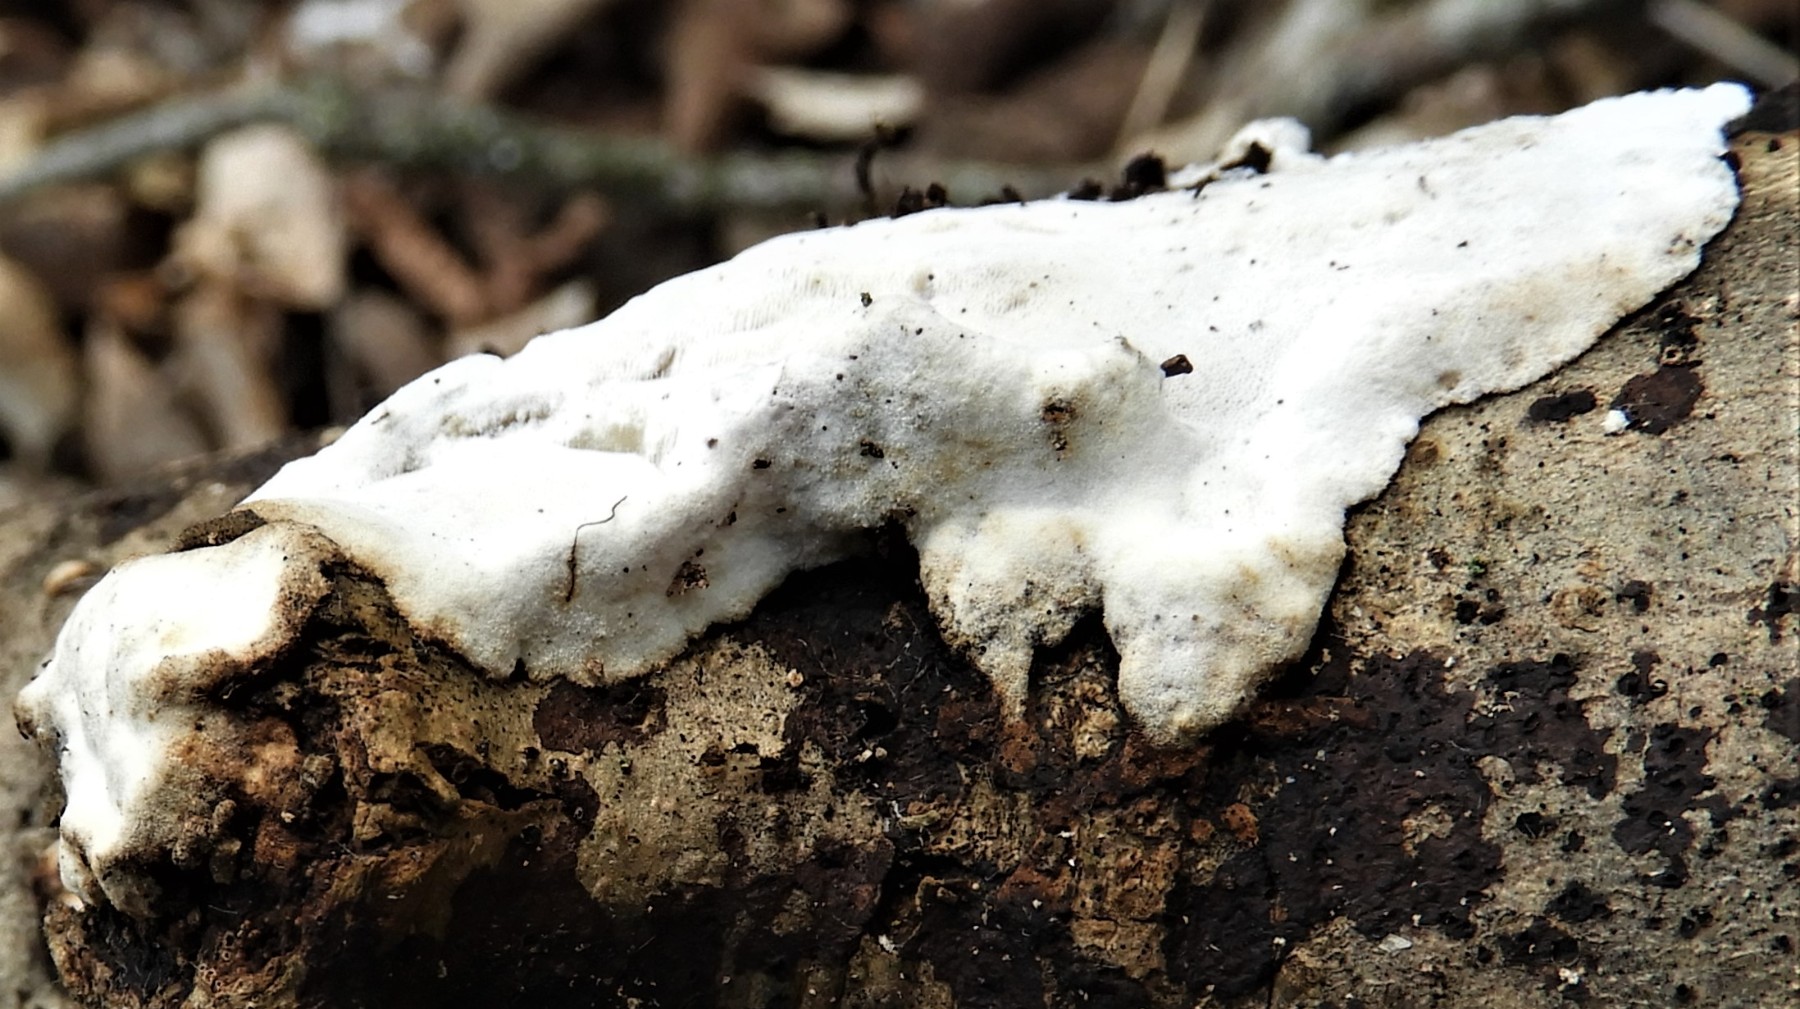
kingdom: Fungi
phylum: Basidiomycota
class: Agaricomycetes
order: Polyporales
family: Incrustoporiaceae
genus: Skeletocutis
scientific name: Skeletocutis nemoralis
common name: stor krystalporesvamp
